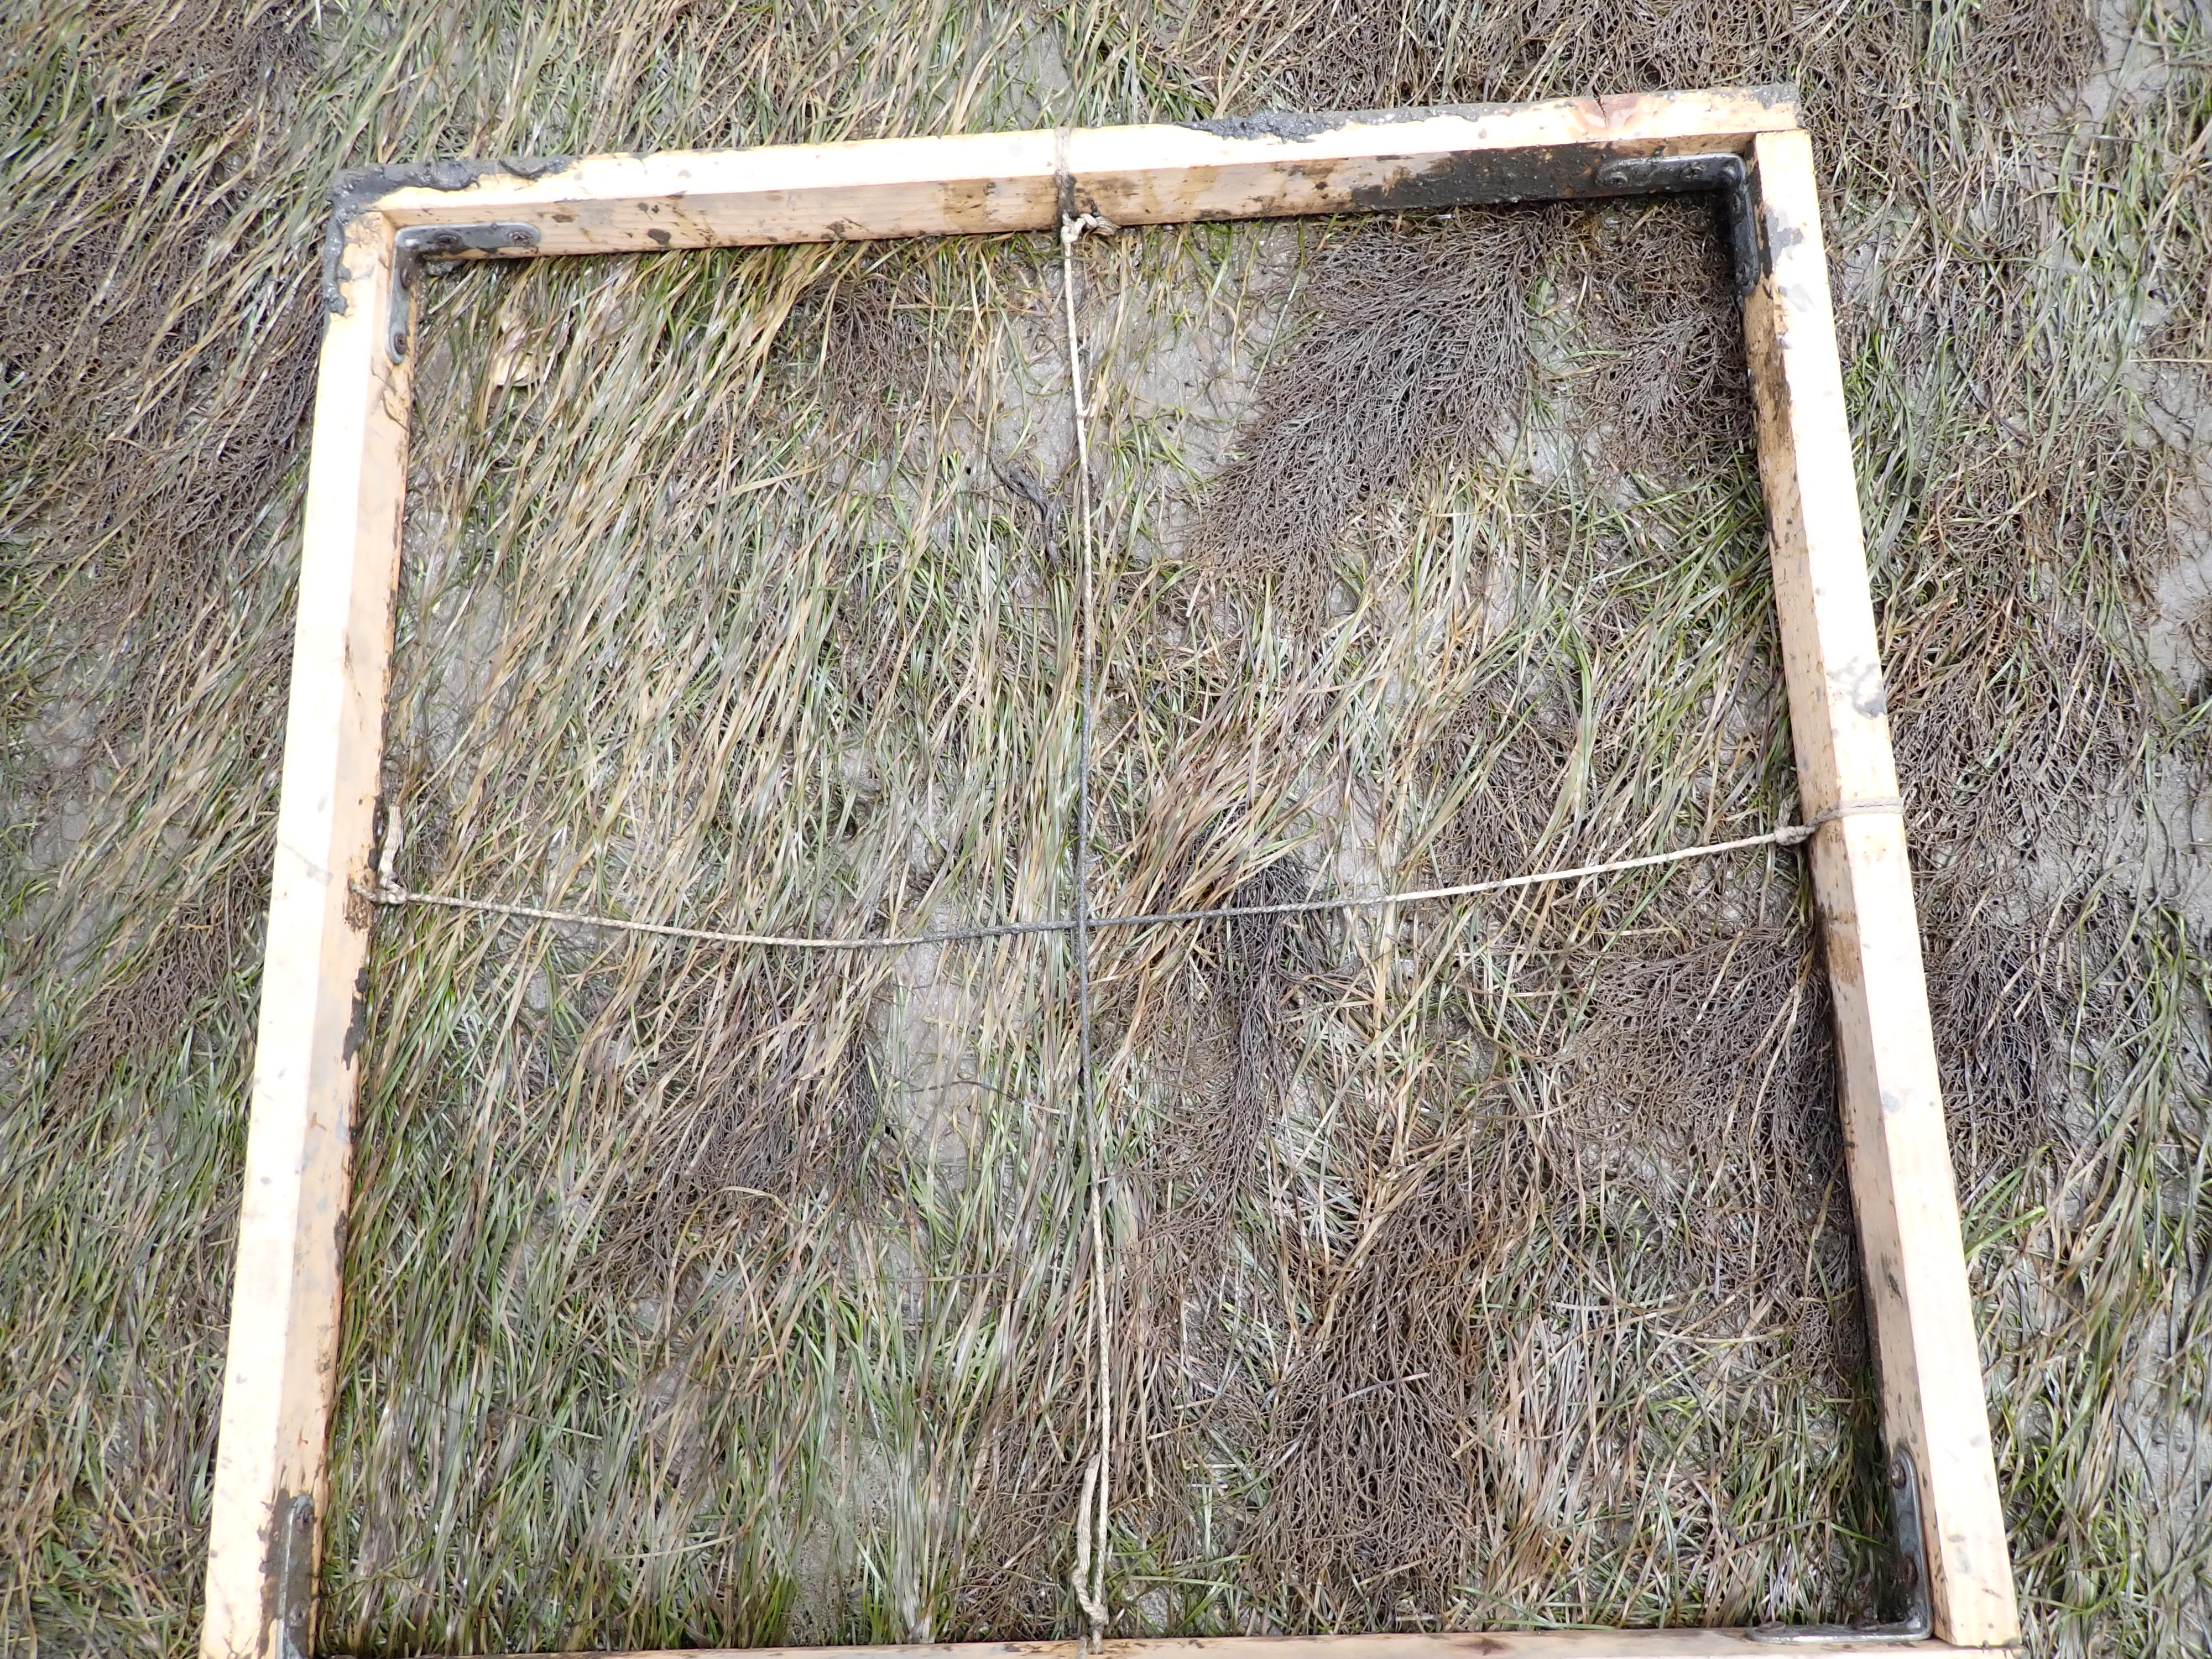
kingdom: Plantae
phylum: Rhodophyta
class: Florideophyceae
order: Gracilariales
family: Gracilariaceae
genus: Gracilaria
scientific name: Gracilaria vermiculophylla
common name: Algae
